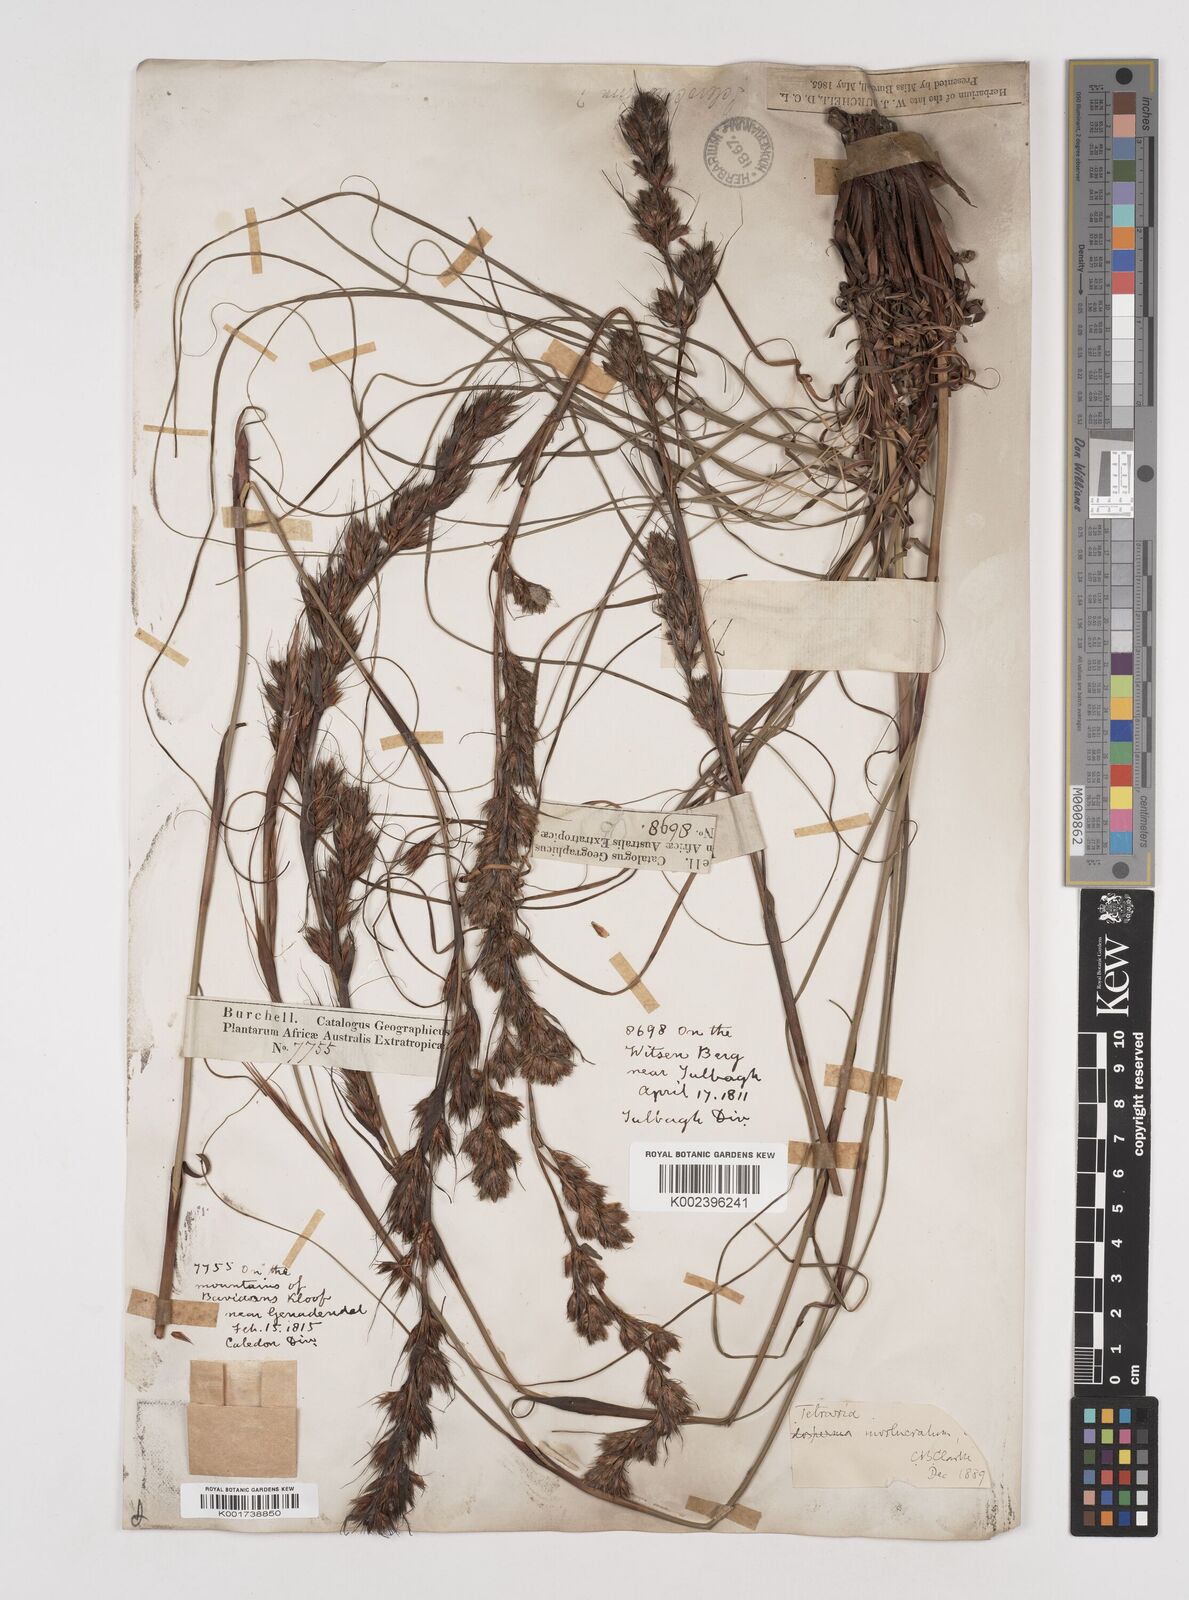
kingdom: Plantae
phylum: Tracheophyta
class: Liliopsida
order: Poales
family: Cyperaceae
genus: Tetraria
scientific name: Tetraria involucrata
